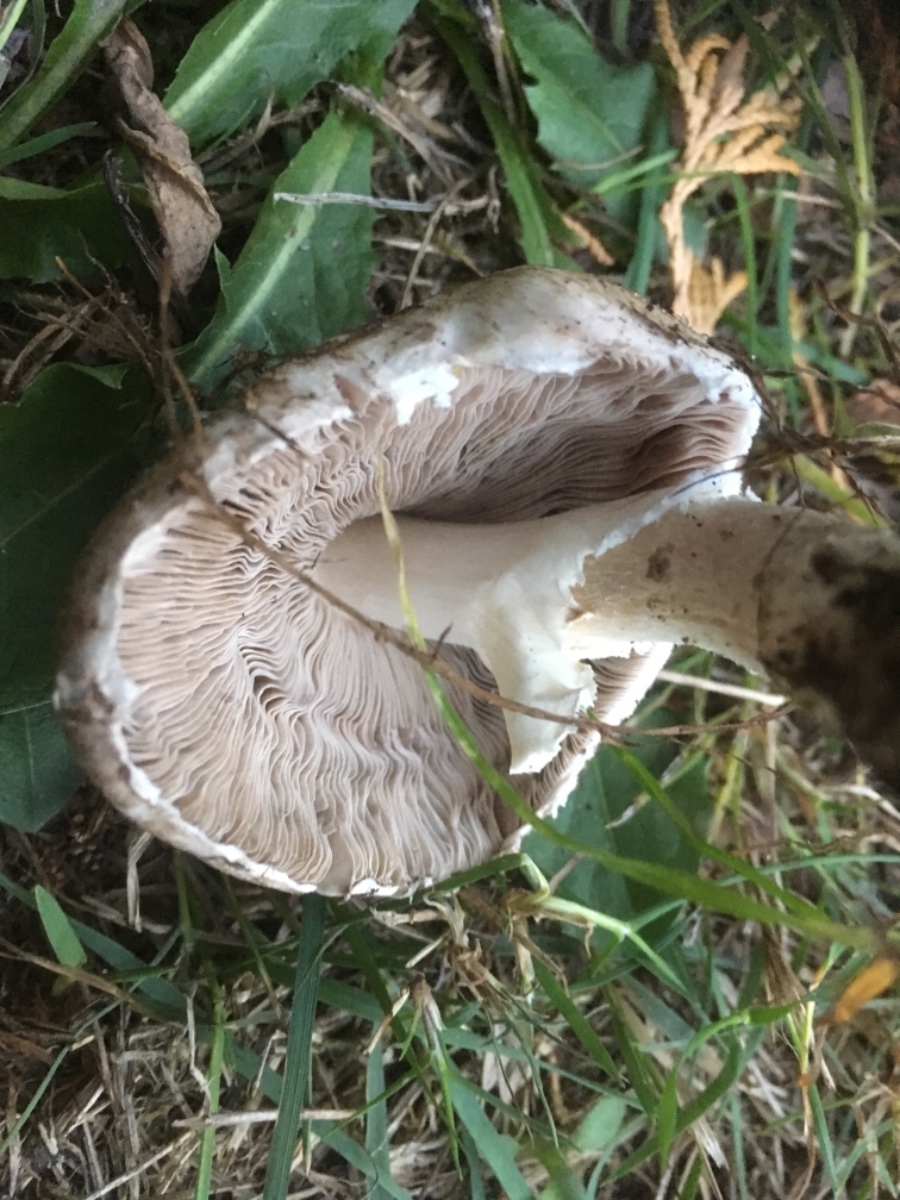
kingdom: Fungi
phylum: Basidiomycota
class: Agaricomycetes
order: Agaricales
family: Agaricaceae
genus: Agaricus
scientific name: Agaricus impudicus
